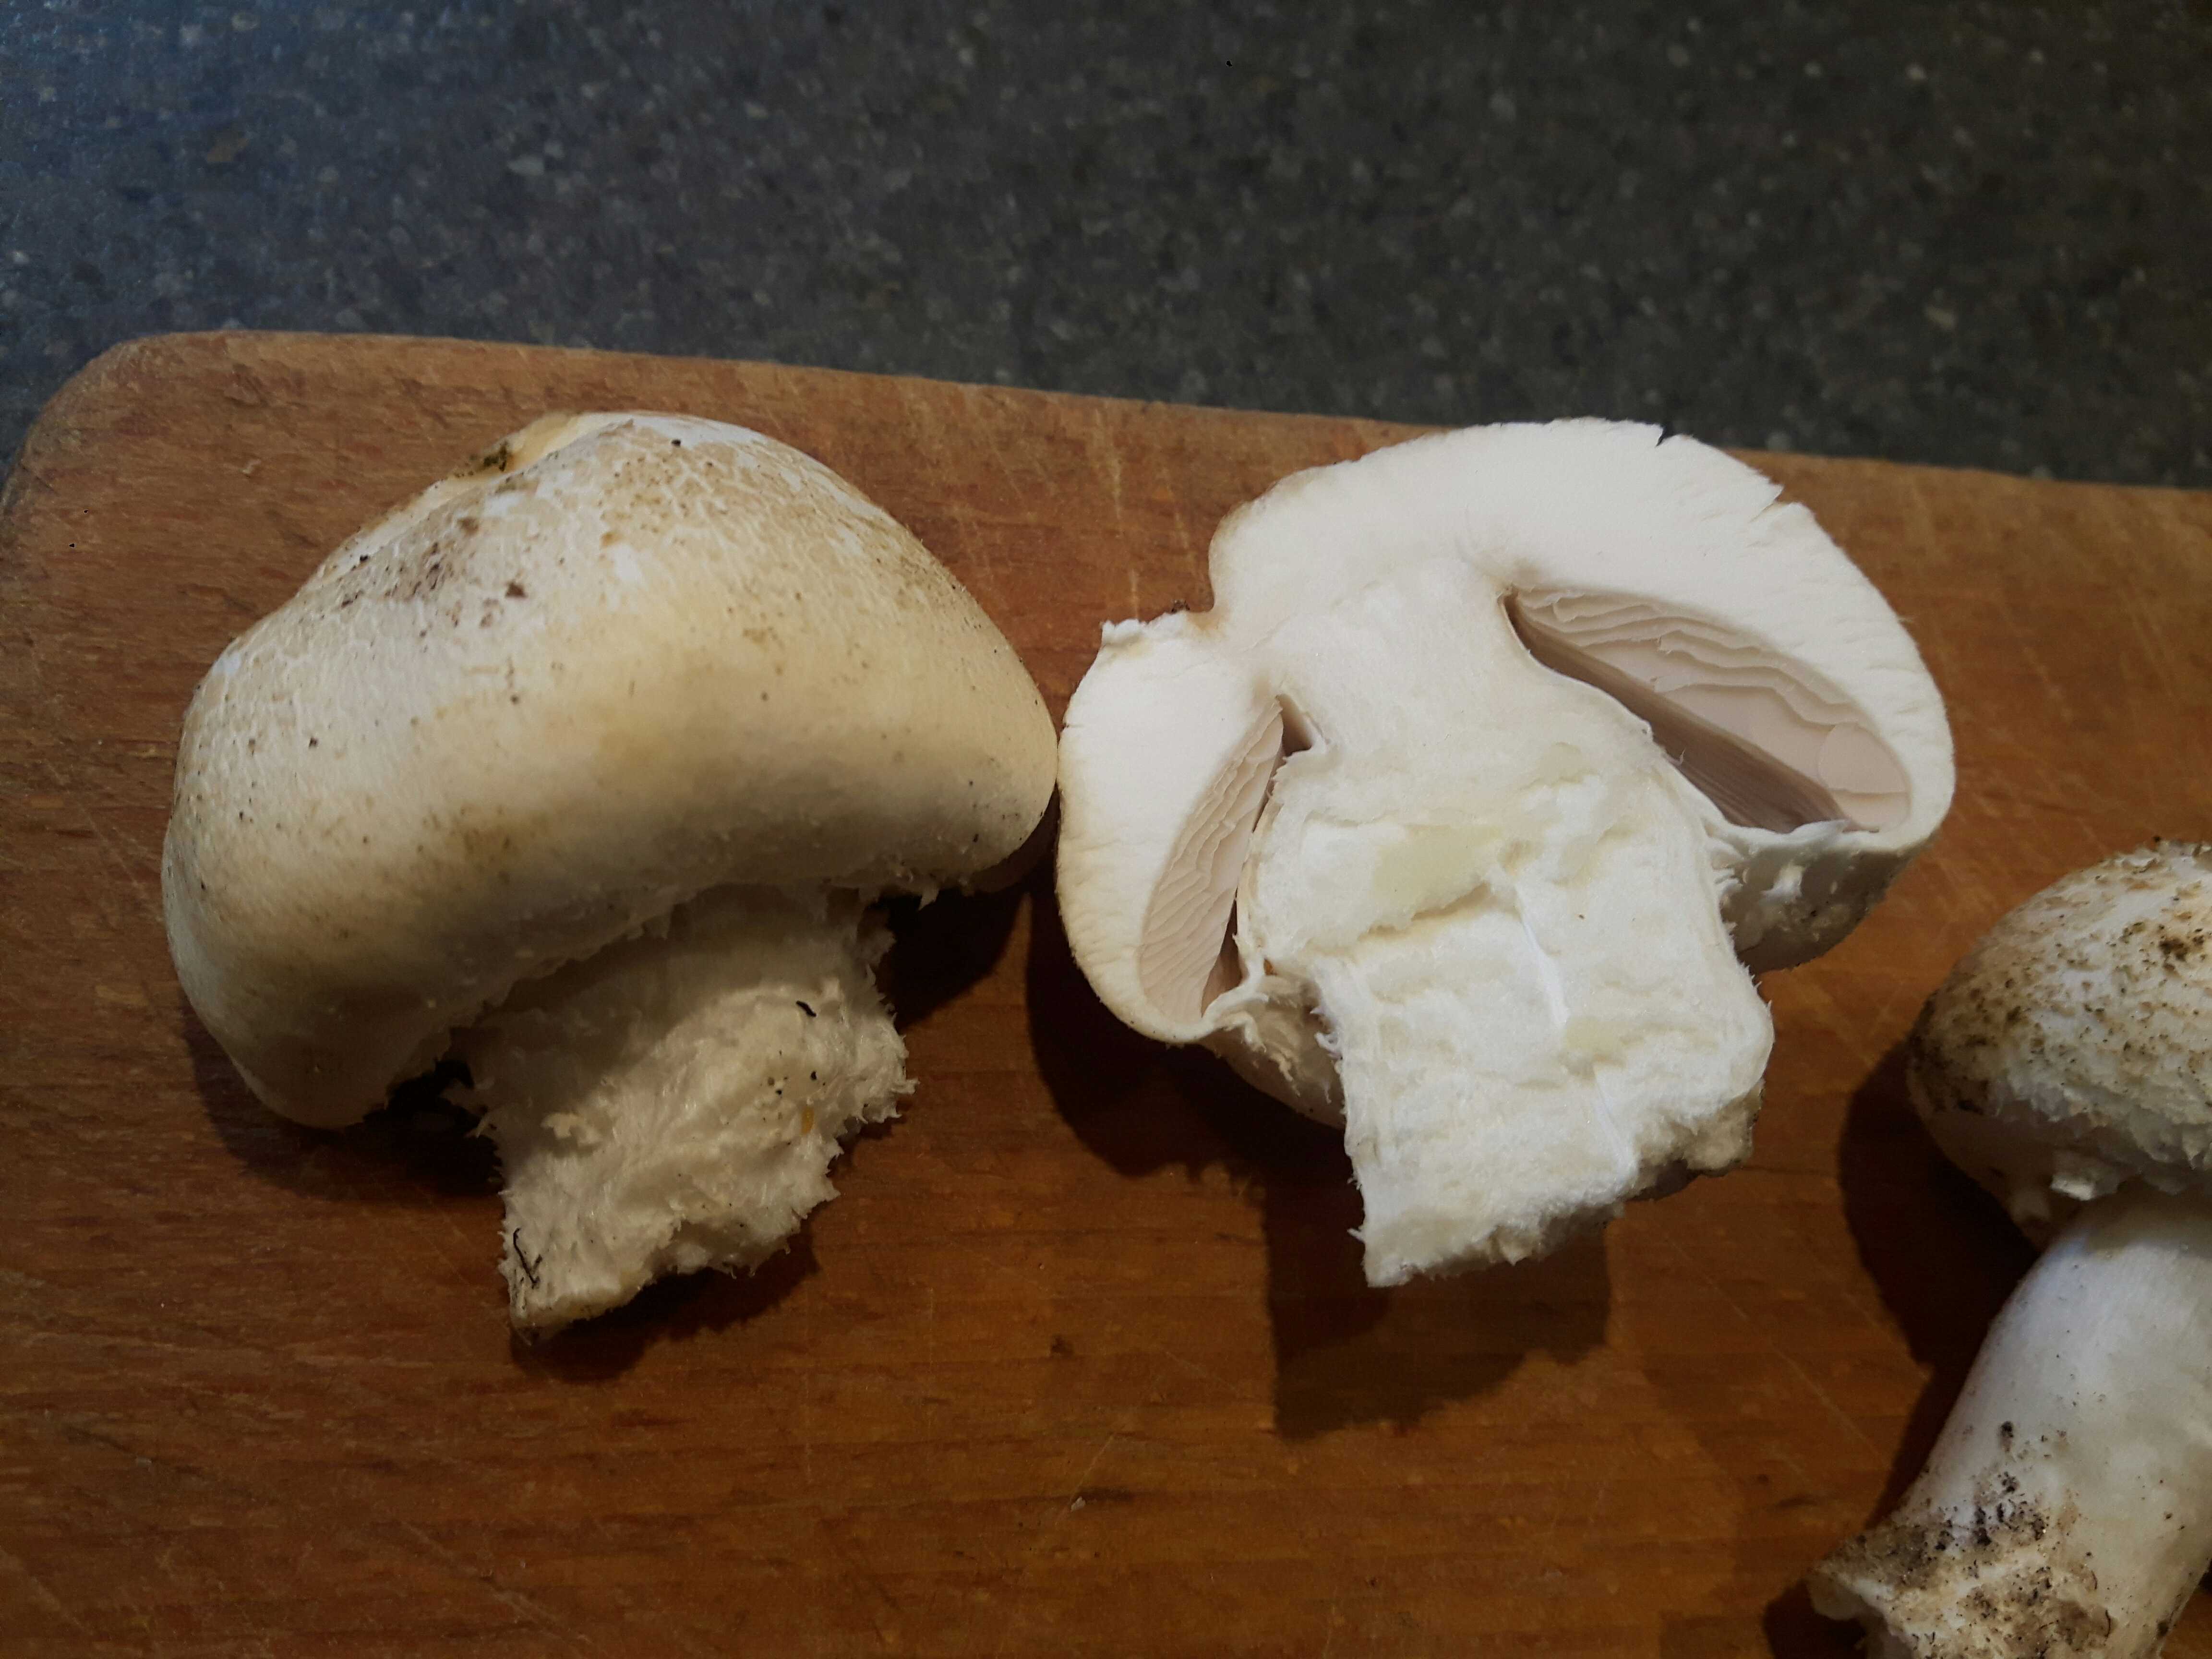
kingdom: Fungi
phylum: Basidiomycota
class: Agaricomycetes
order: Agaricales
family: Agaricaceae
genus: Agaricus
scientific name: Agaricus
